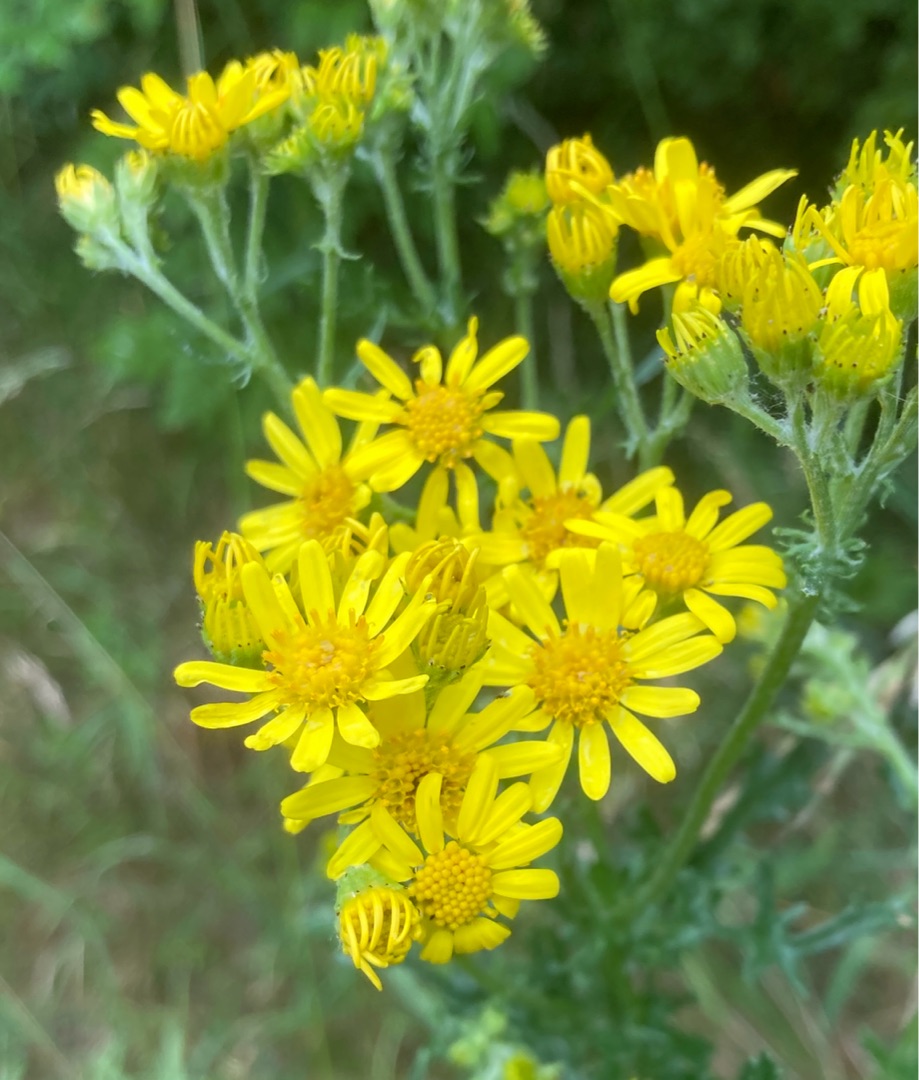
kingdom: Plantae
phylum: Tracheophyta
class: Magnoliopsida
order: Asterales
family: Asteraceae
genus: Jacobaea
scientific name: Jacobaea vulgaris
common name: Eng-brandbæger
